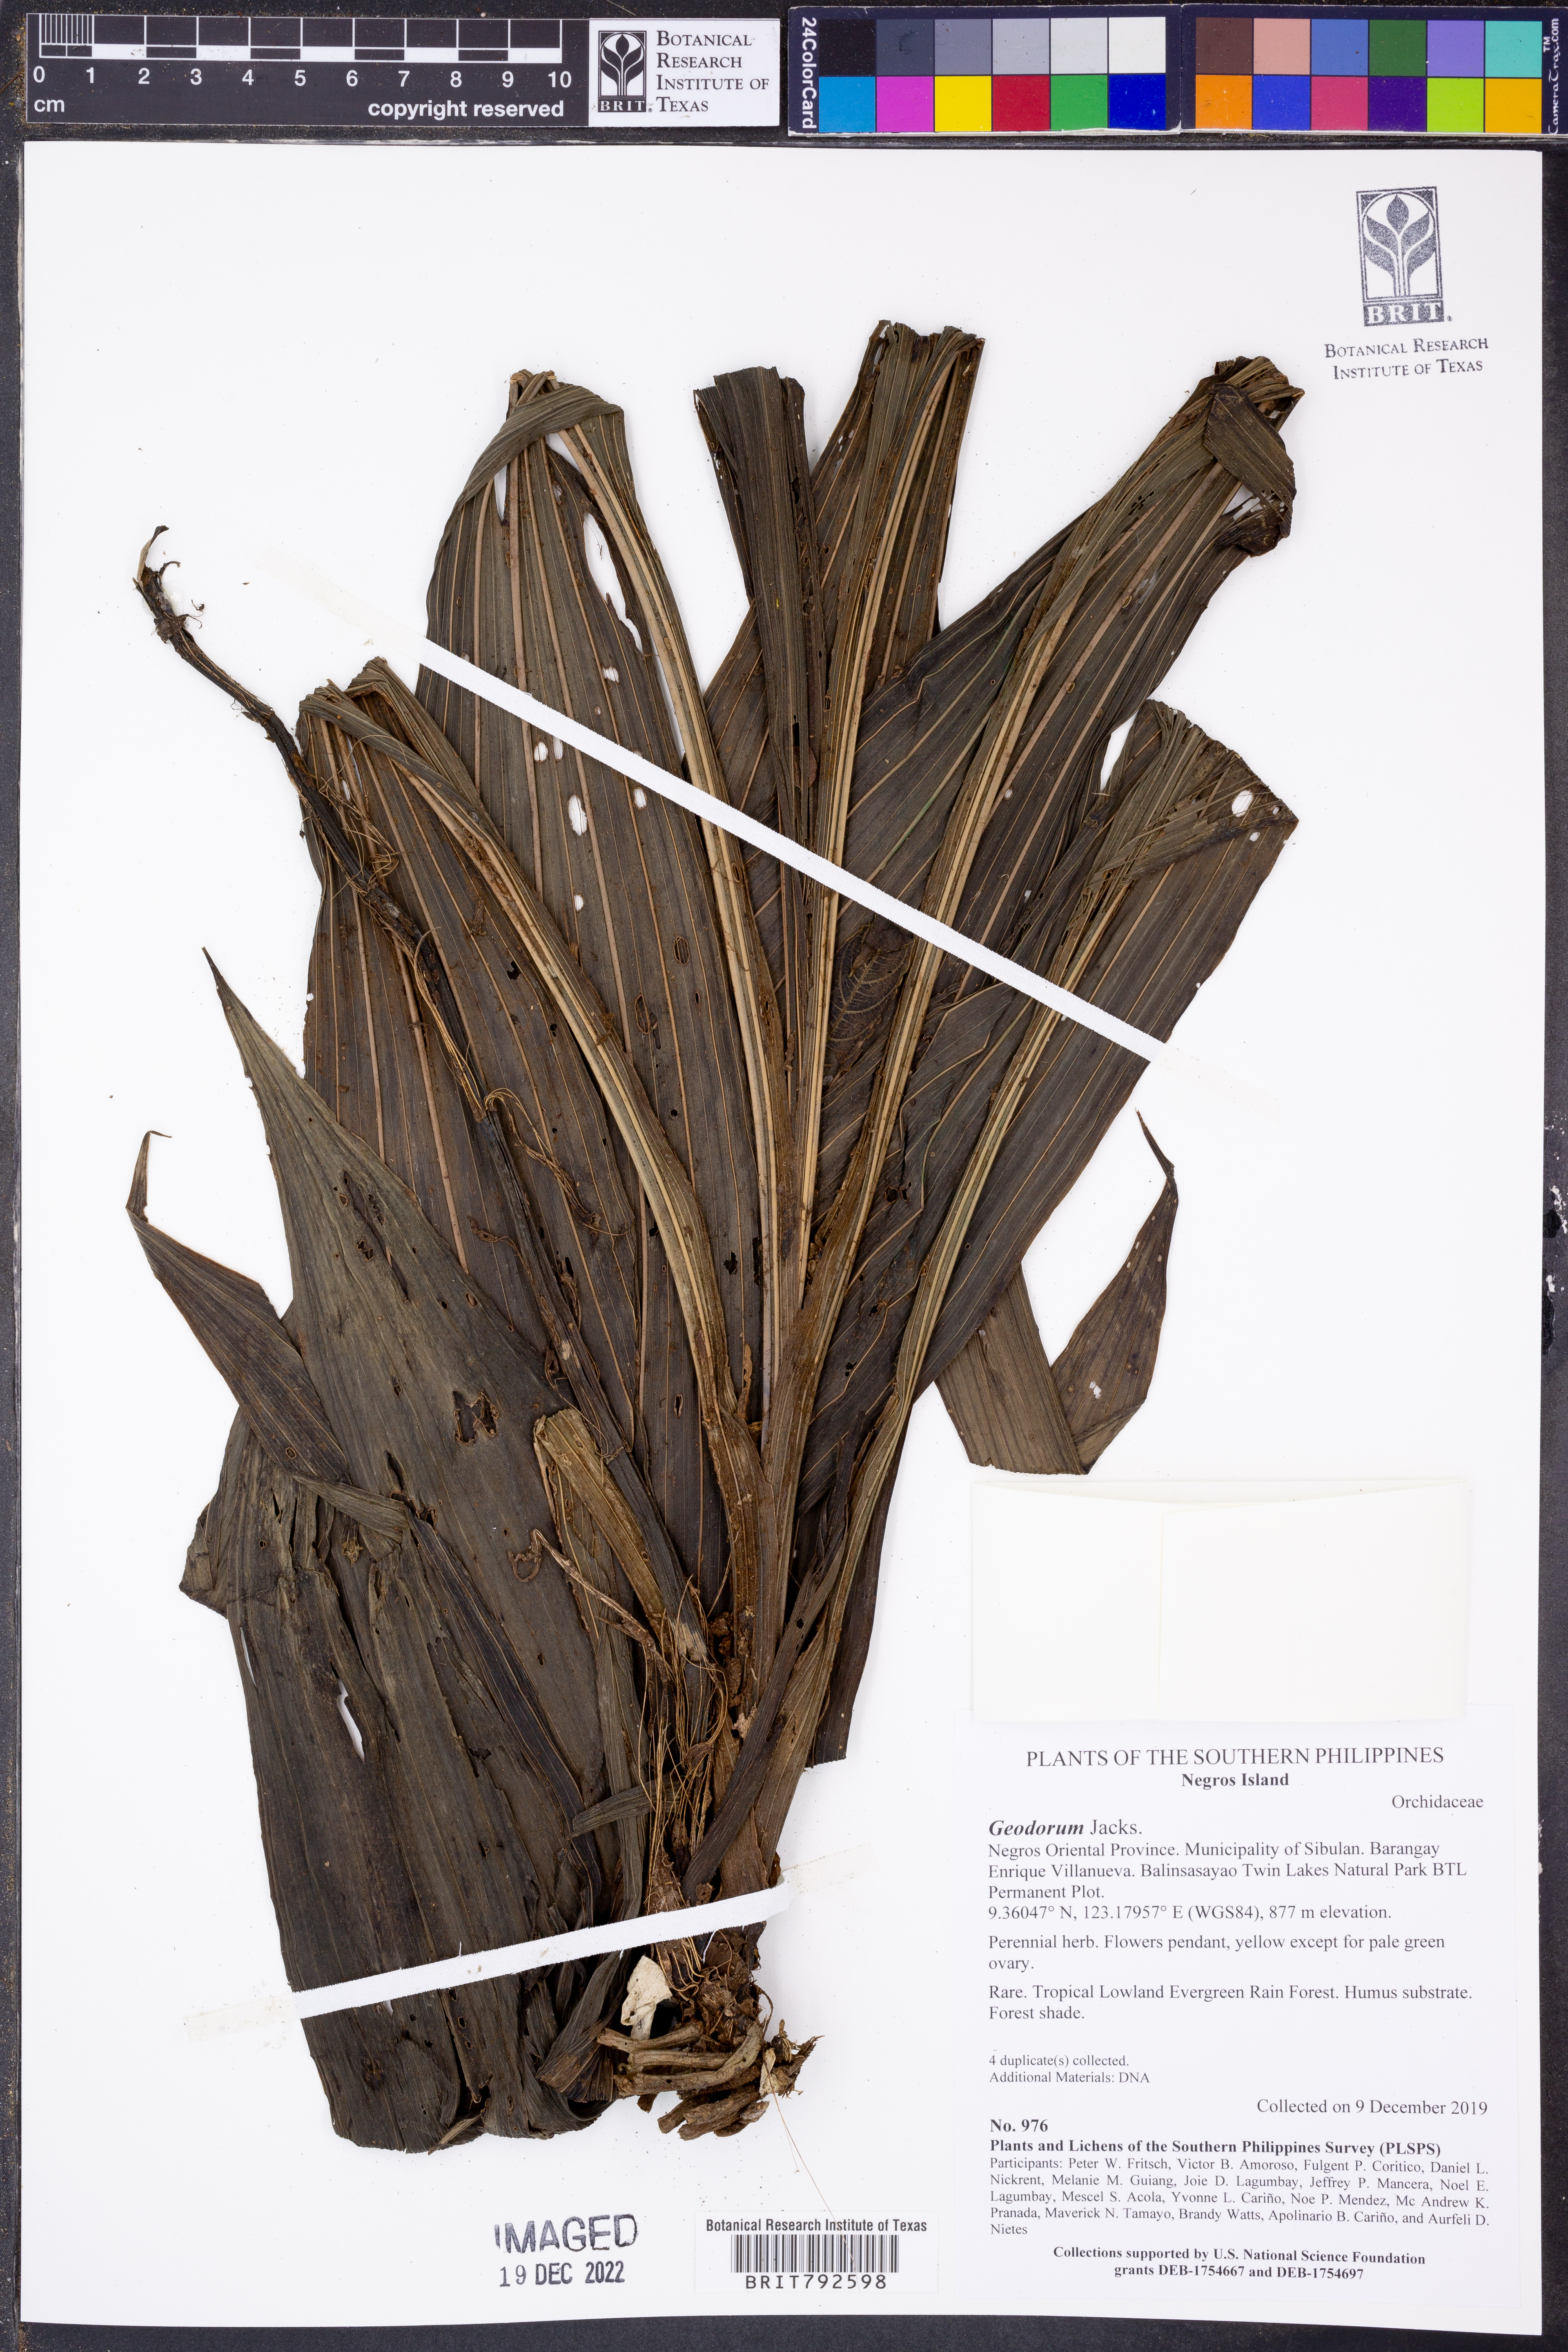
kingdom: Plantae
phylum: Tracheophyta
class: Liliopsida
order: Asparagales
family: Orchidaceae
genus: Geodorum
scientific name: Geodorum
